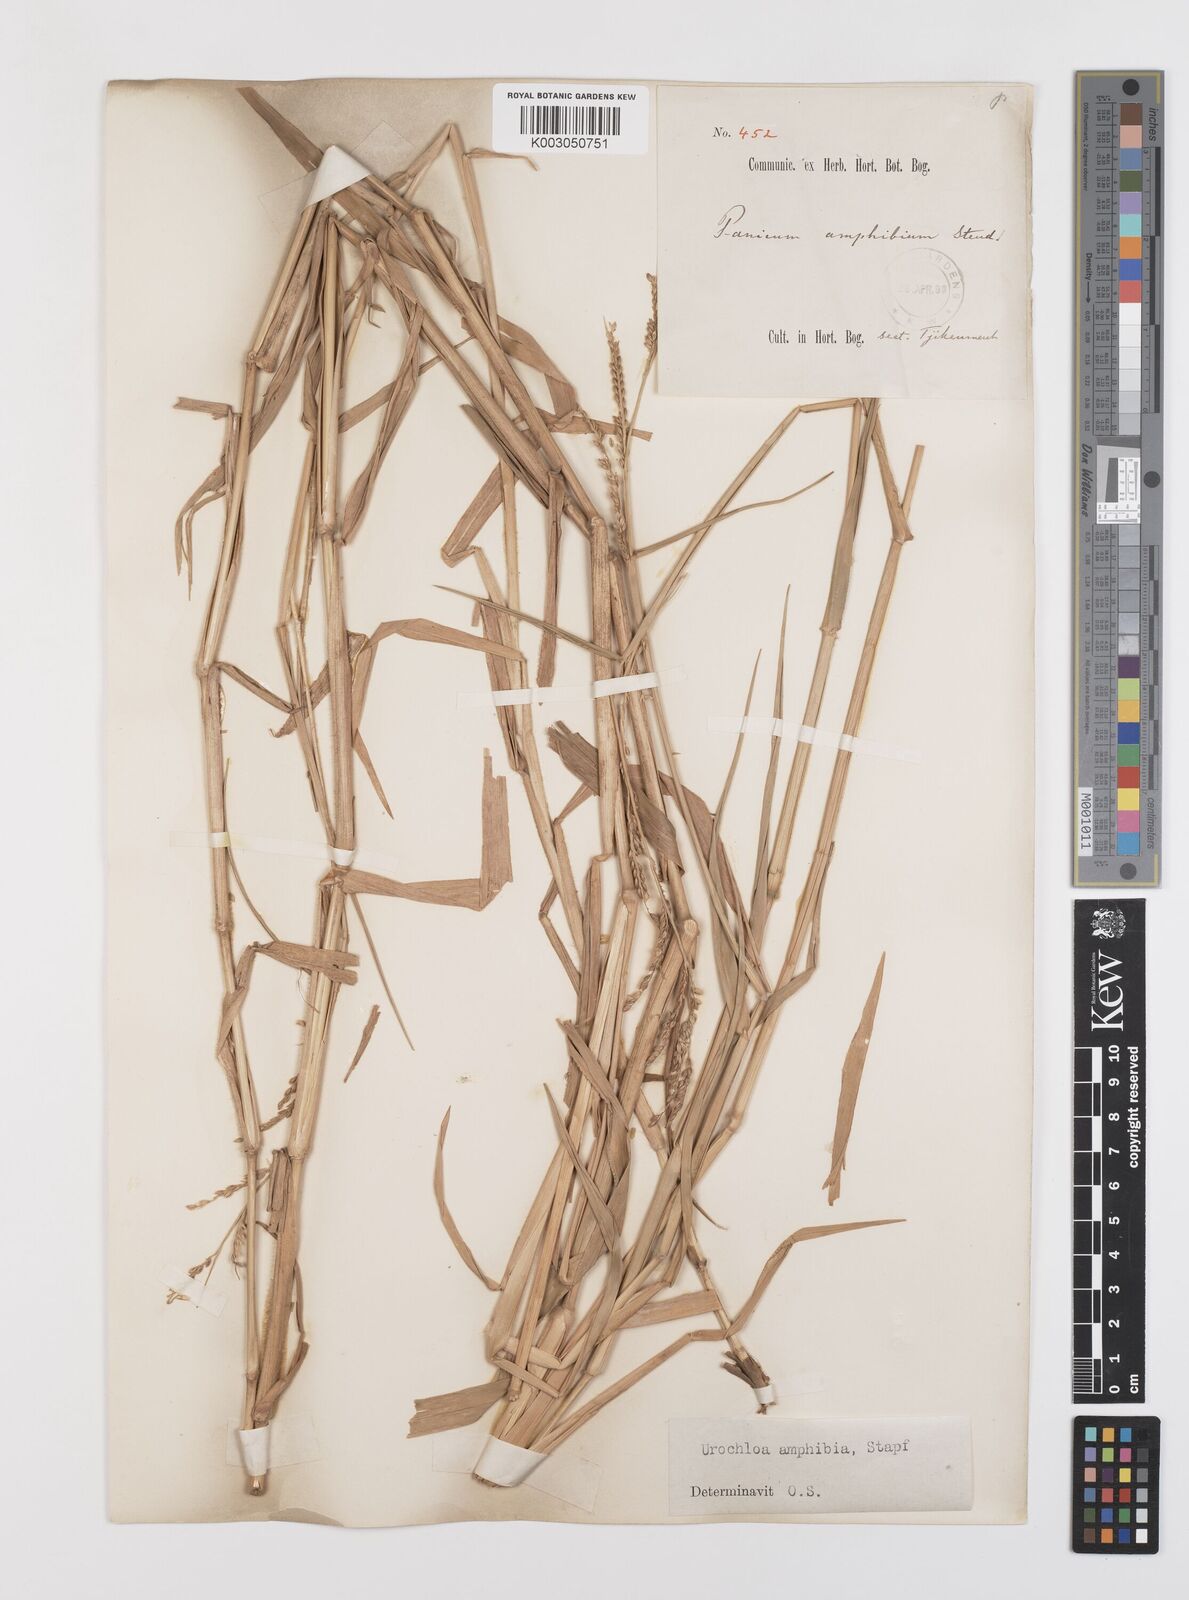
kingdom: Plantae
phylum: Tracheophyta
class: Liliopsida
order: Poales
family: Poaceae
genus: Urochloa
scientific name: Urochloa mutica
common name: Para grass
